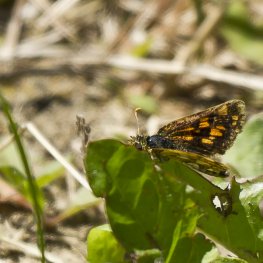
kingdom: Animalia
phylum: Arthropoda
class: Insecta
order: Lepidoptera
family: Hesperiidae
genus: Carterocephalus
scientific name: Carterocephalus palaemon
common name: Chequered Skipper
